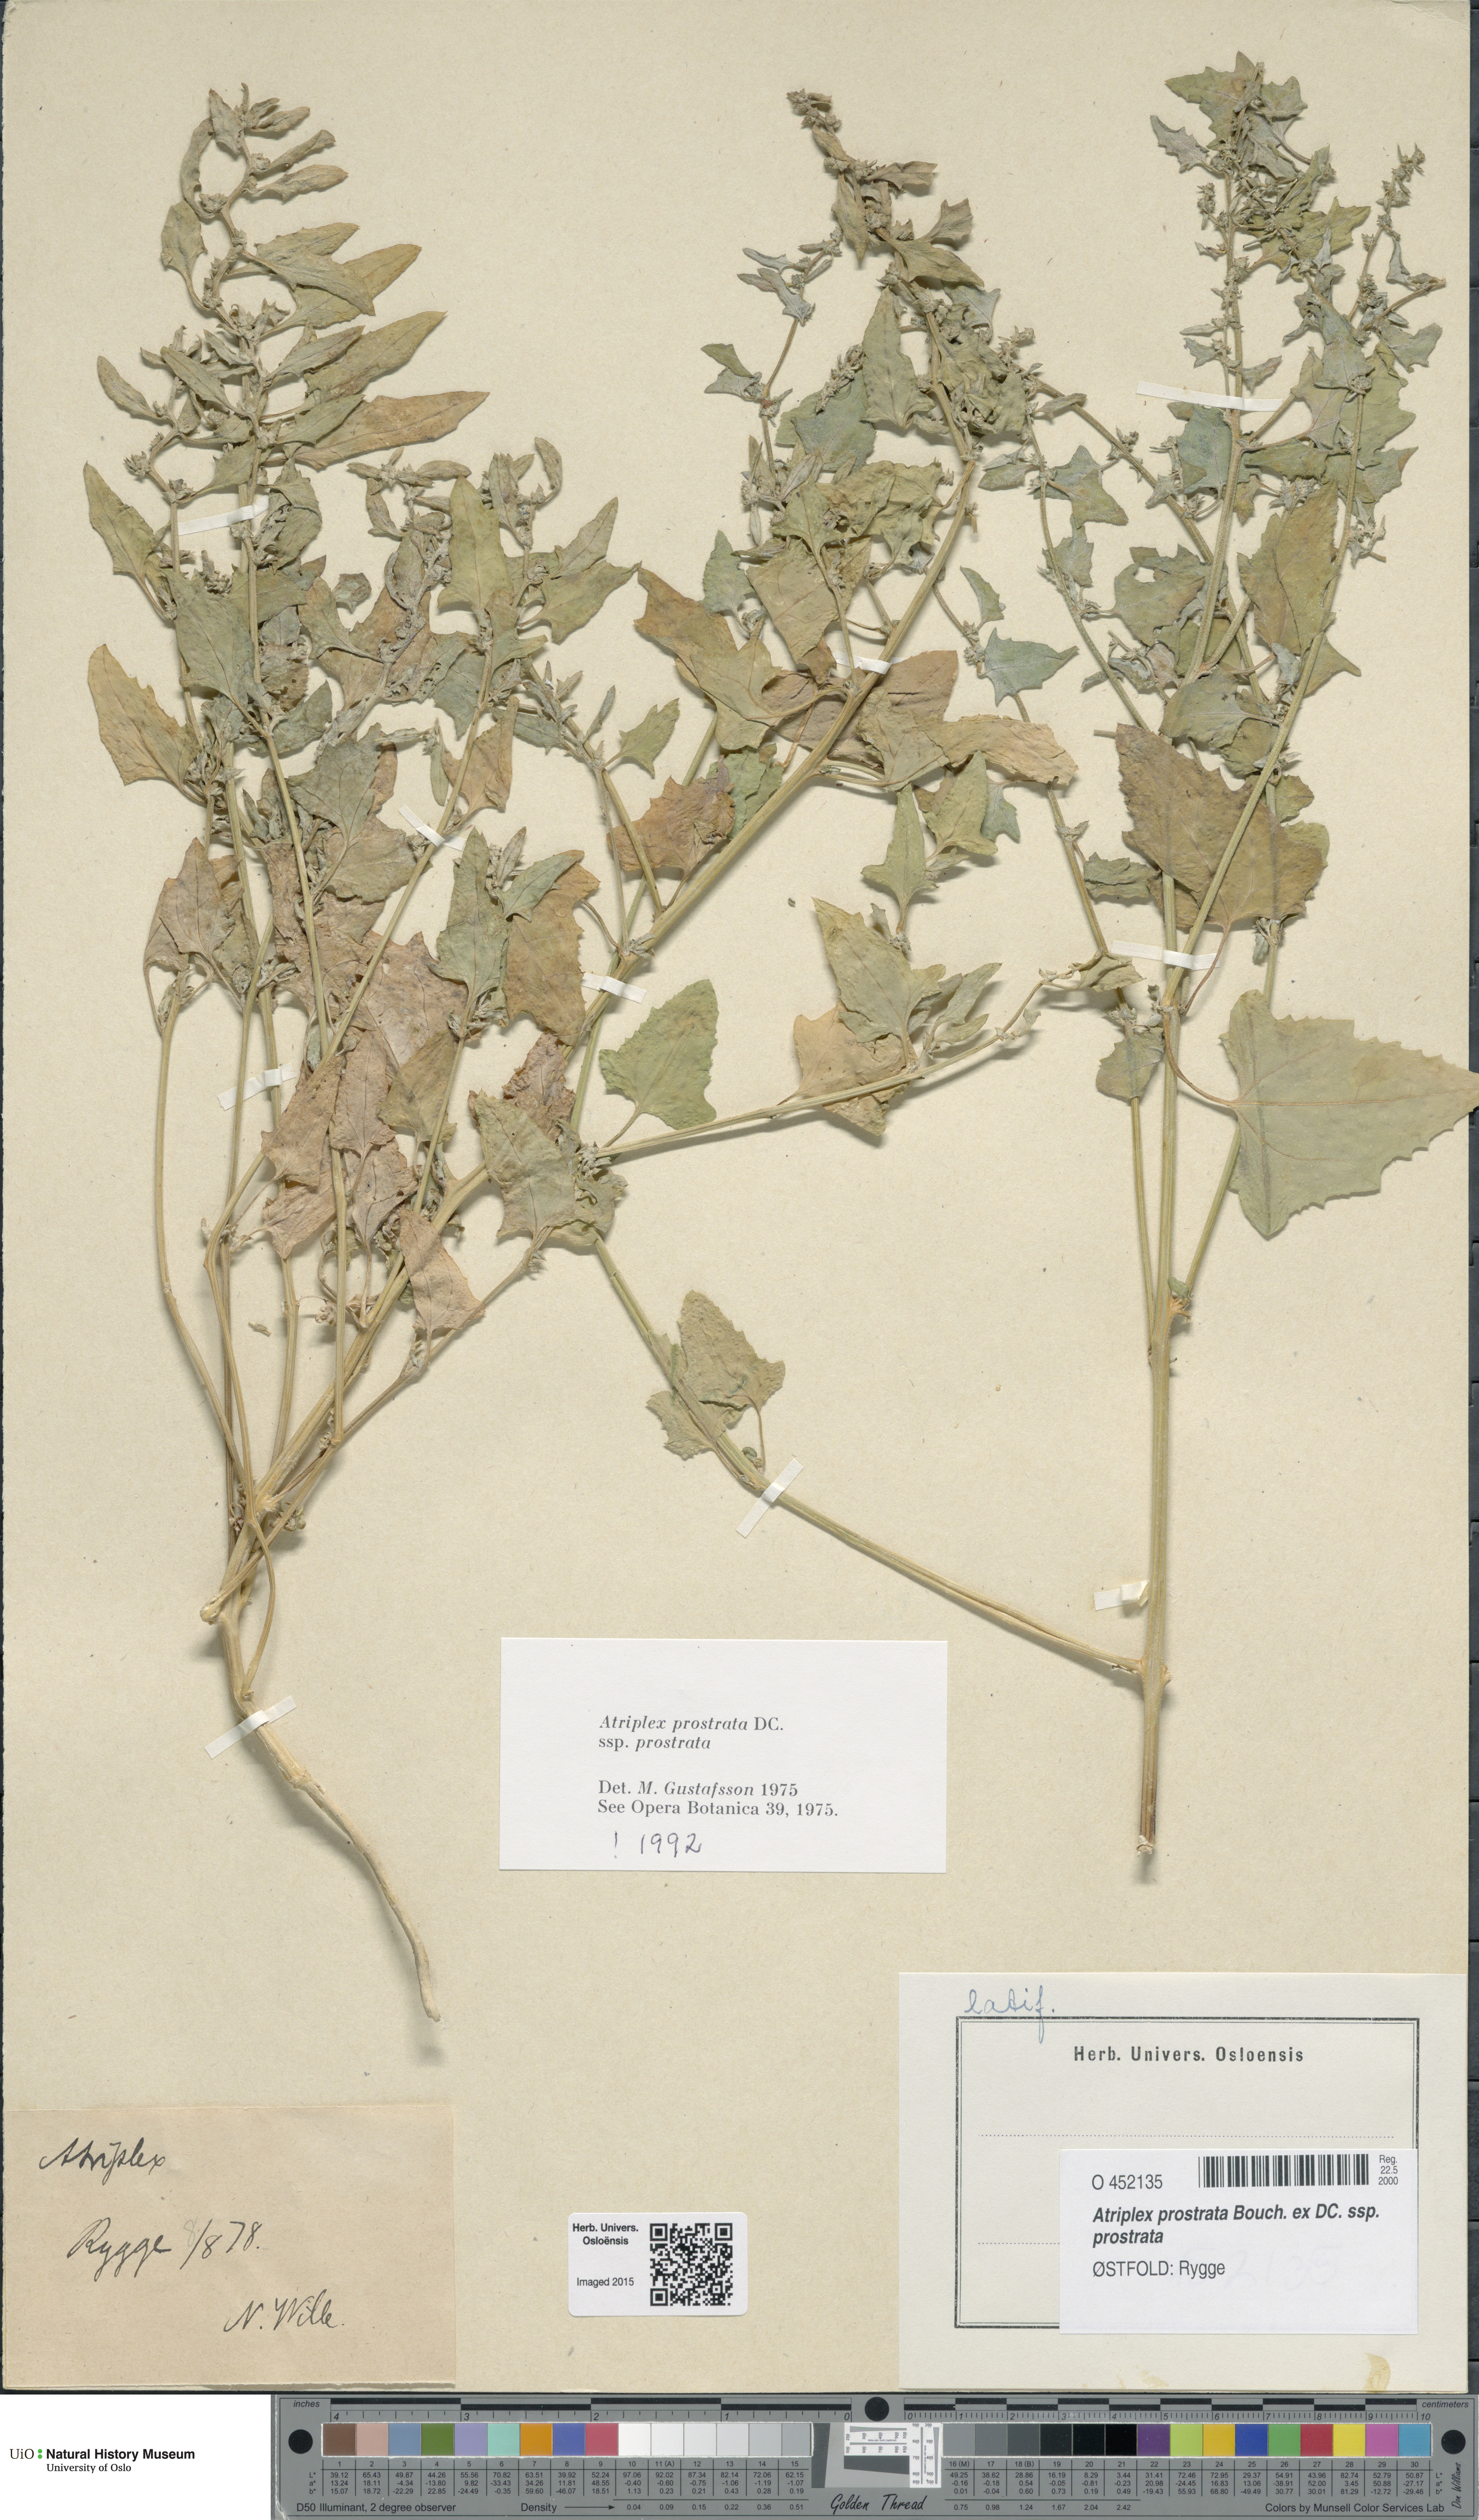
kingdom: Plantae
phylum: Tracheophyta
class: Magnoliopsida
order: Caryophyllales
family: Amaranthaceae
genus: Atriplex
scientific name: Atriplex prostrata
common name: Spear-leaved orache
